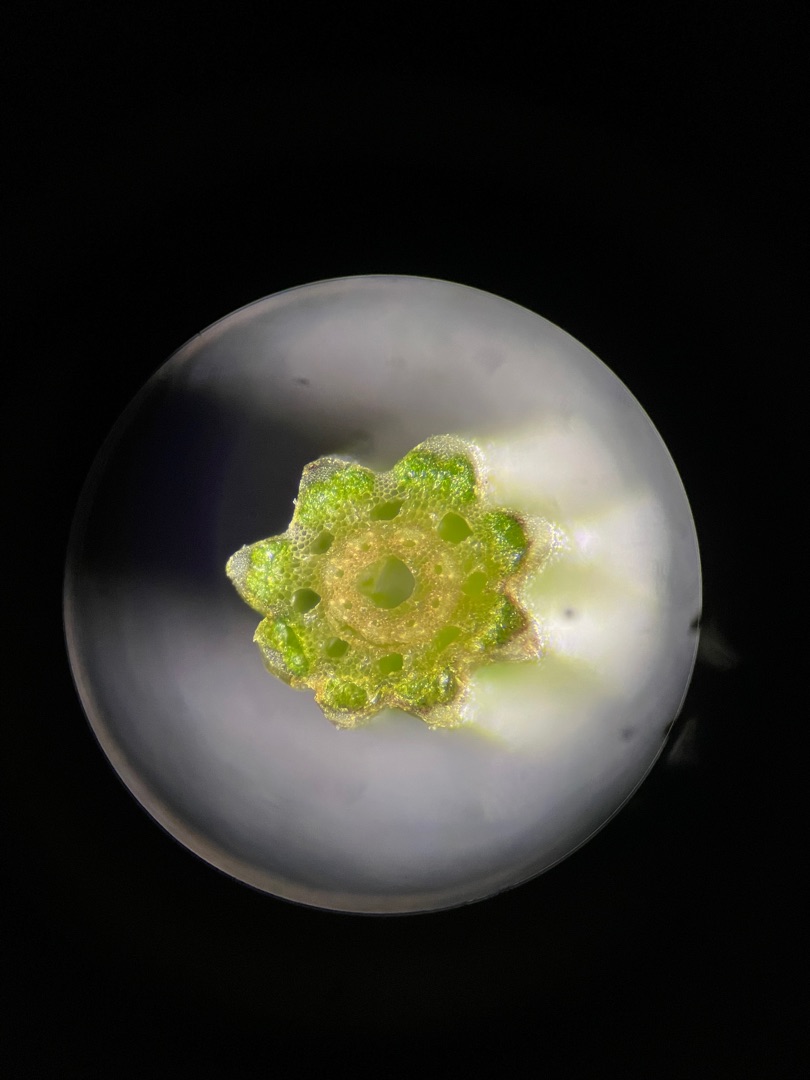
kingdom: Plantae
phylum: Tracheophyta
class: Polypodiopsida
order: Equisetales
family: Equisetaceae
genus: Equisetum
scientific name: Equisetum arvense
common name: Ager-padderok
